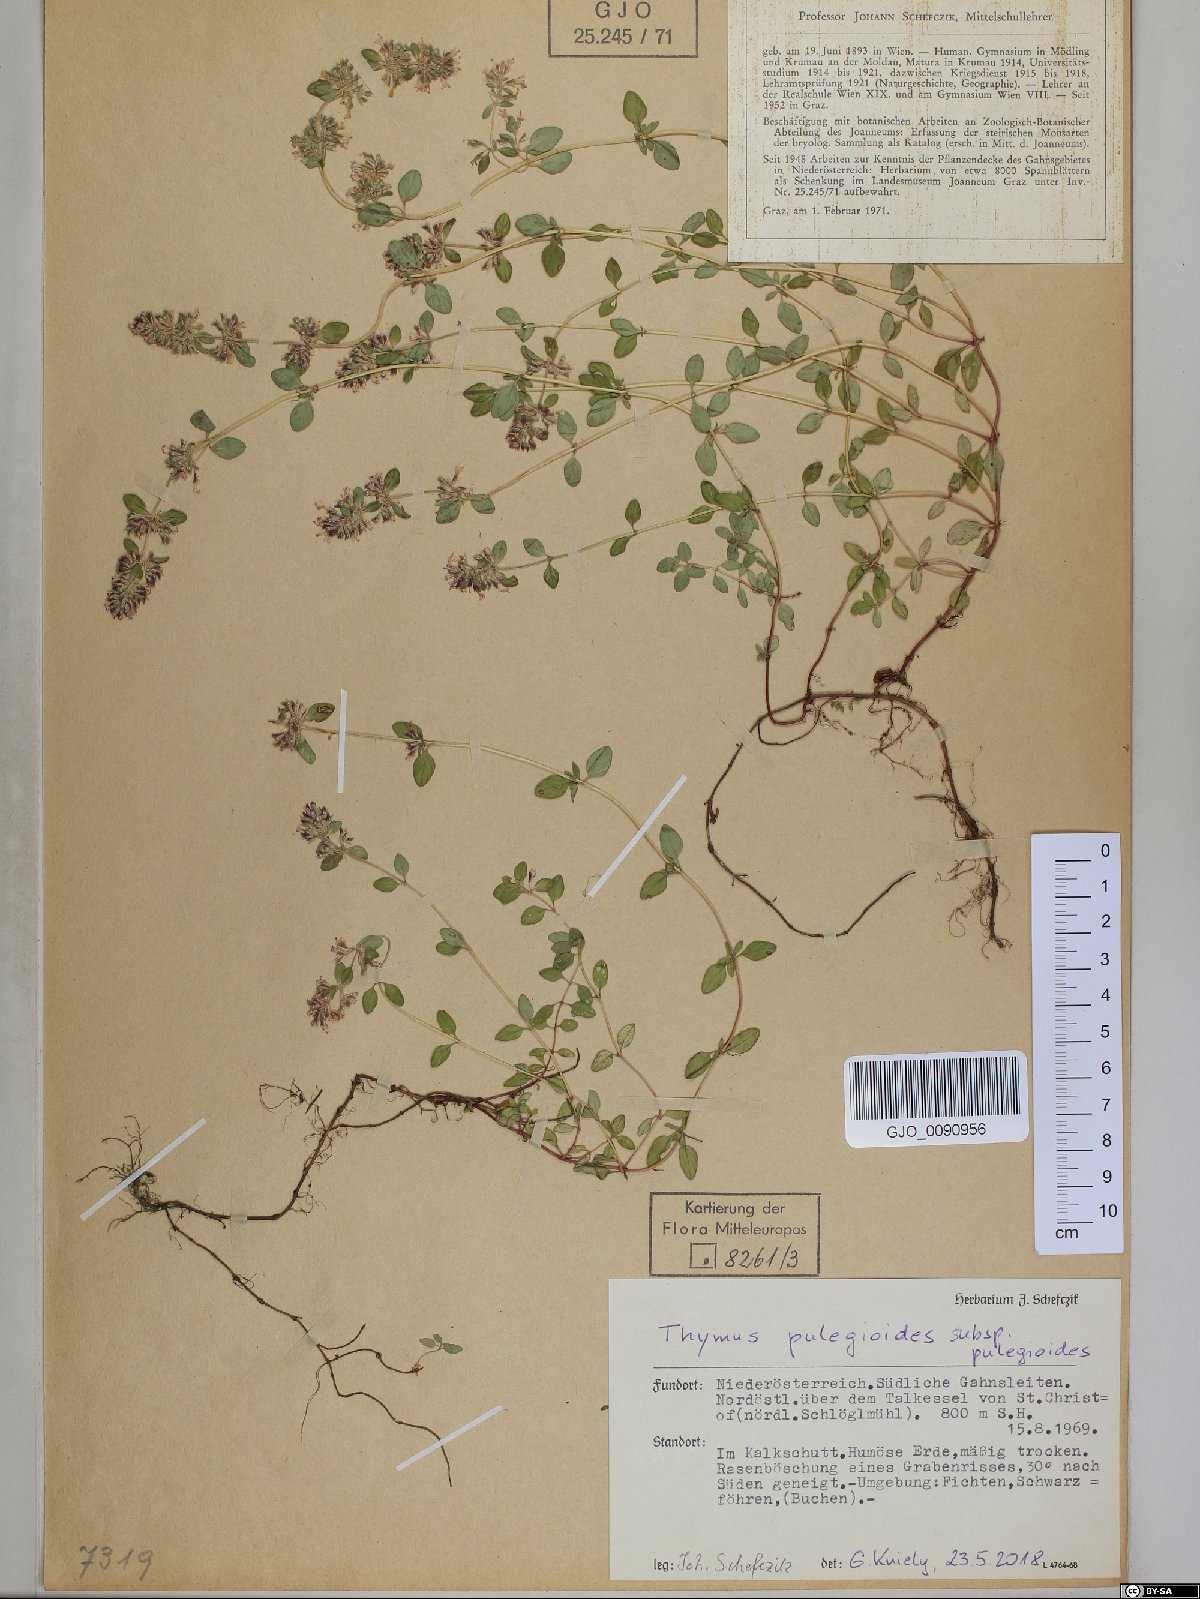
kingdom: Plantae
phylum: Tracheophyta
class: Magnoliopsida
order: Lamiales
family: Lamiaceae
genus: Thymus
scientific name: Thymus pulegioides
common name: Large thyme
